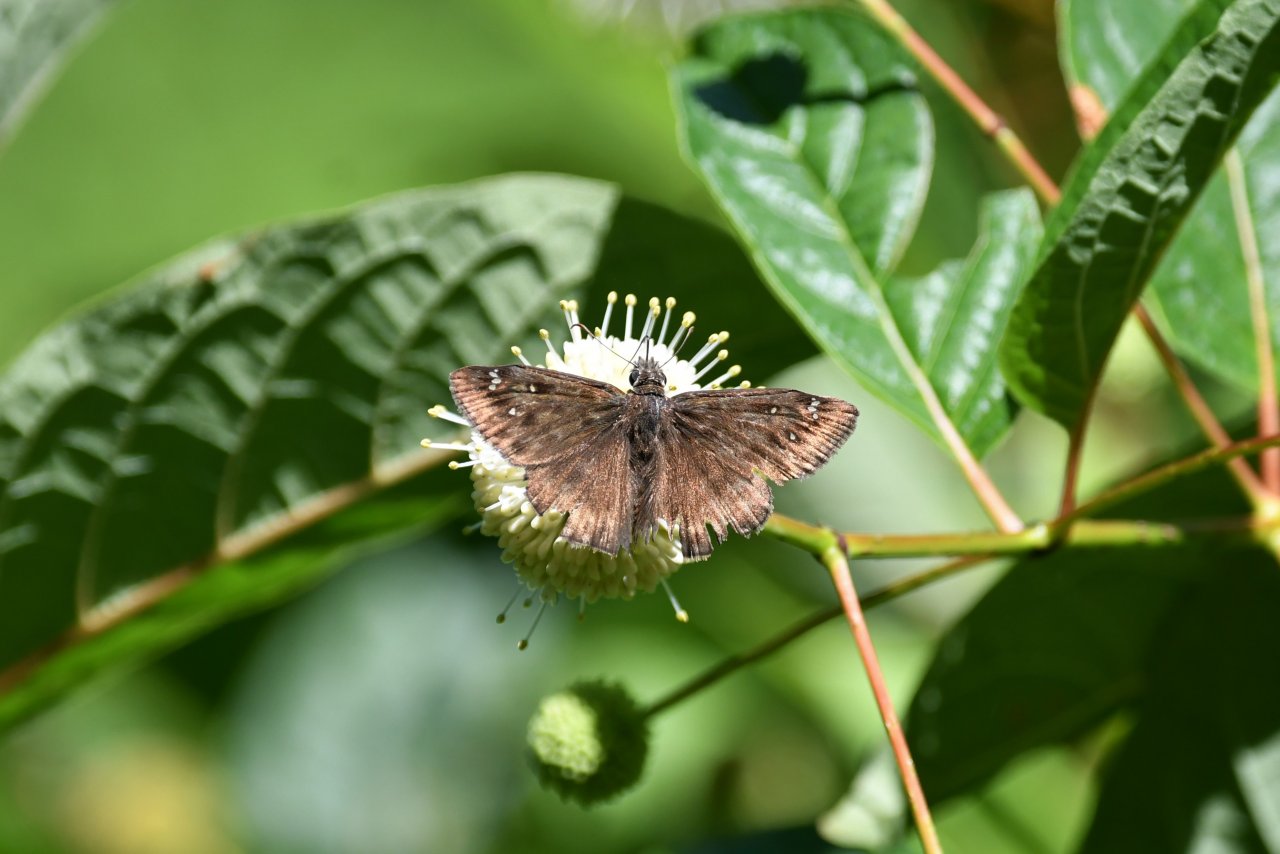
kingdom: Animalia
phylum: Arthropoda
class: Insecta
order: Lepidoptera
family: Hesperiidae
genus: Gesta
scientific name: Gesta
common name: Horace's Duskywing
